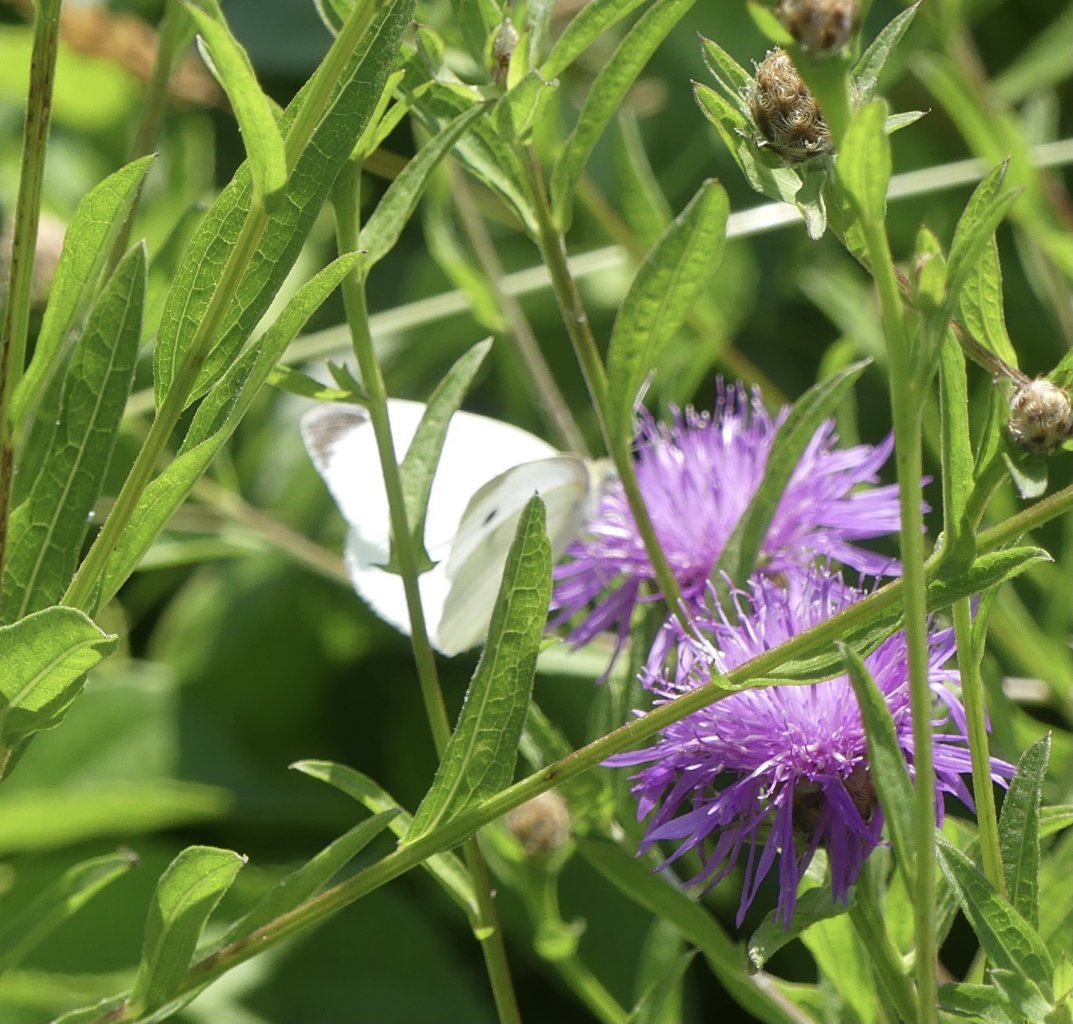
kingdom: Animalia
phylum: Arthropoda
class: Insecta
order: Lepidoptera
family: Pieridae
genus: Pieris
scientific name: Pieris rapae
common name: Cabbage White
